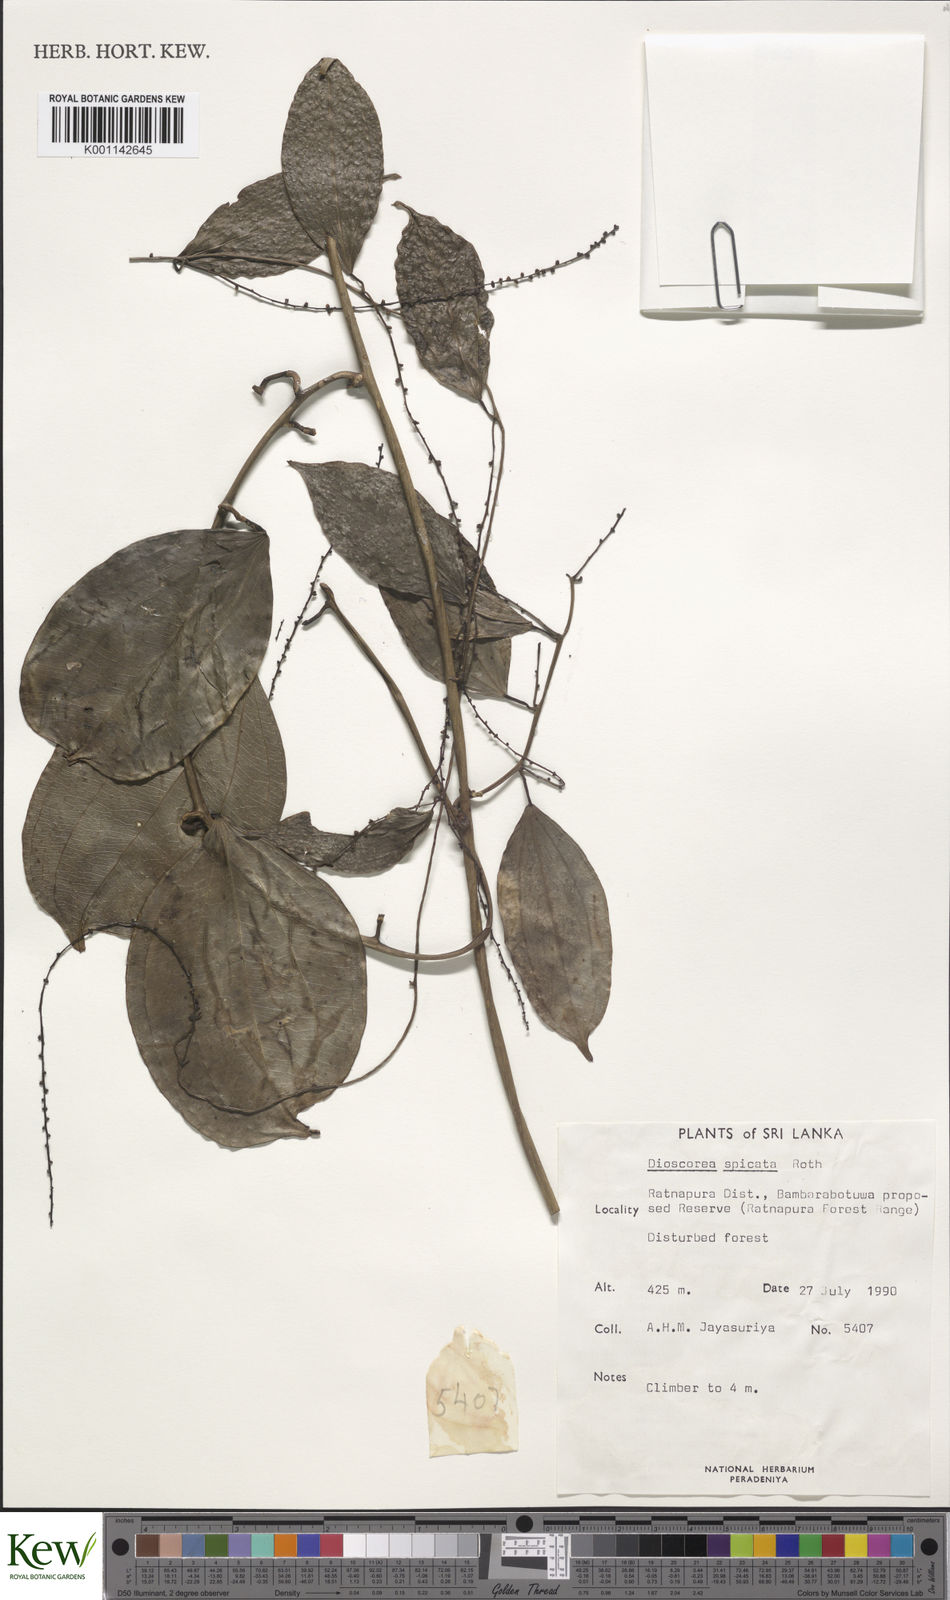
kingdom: Plantae
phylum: Tracheophyta
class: Liliopsida
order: Dioscoreales
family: Dioscoreaceae
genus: Dioscorea
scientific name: Dioscorea spicata
